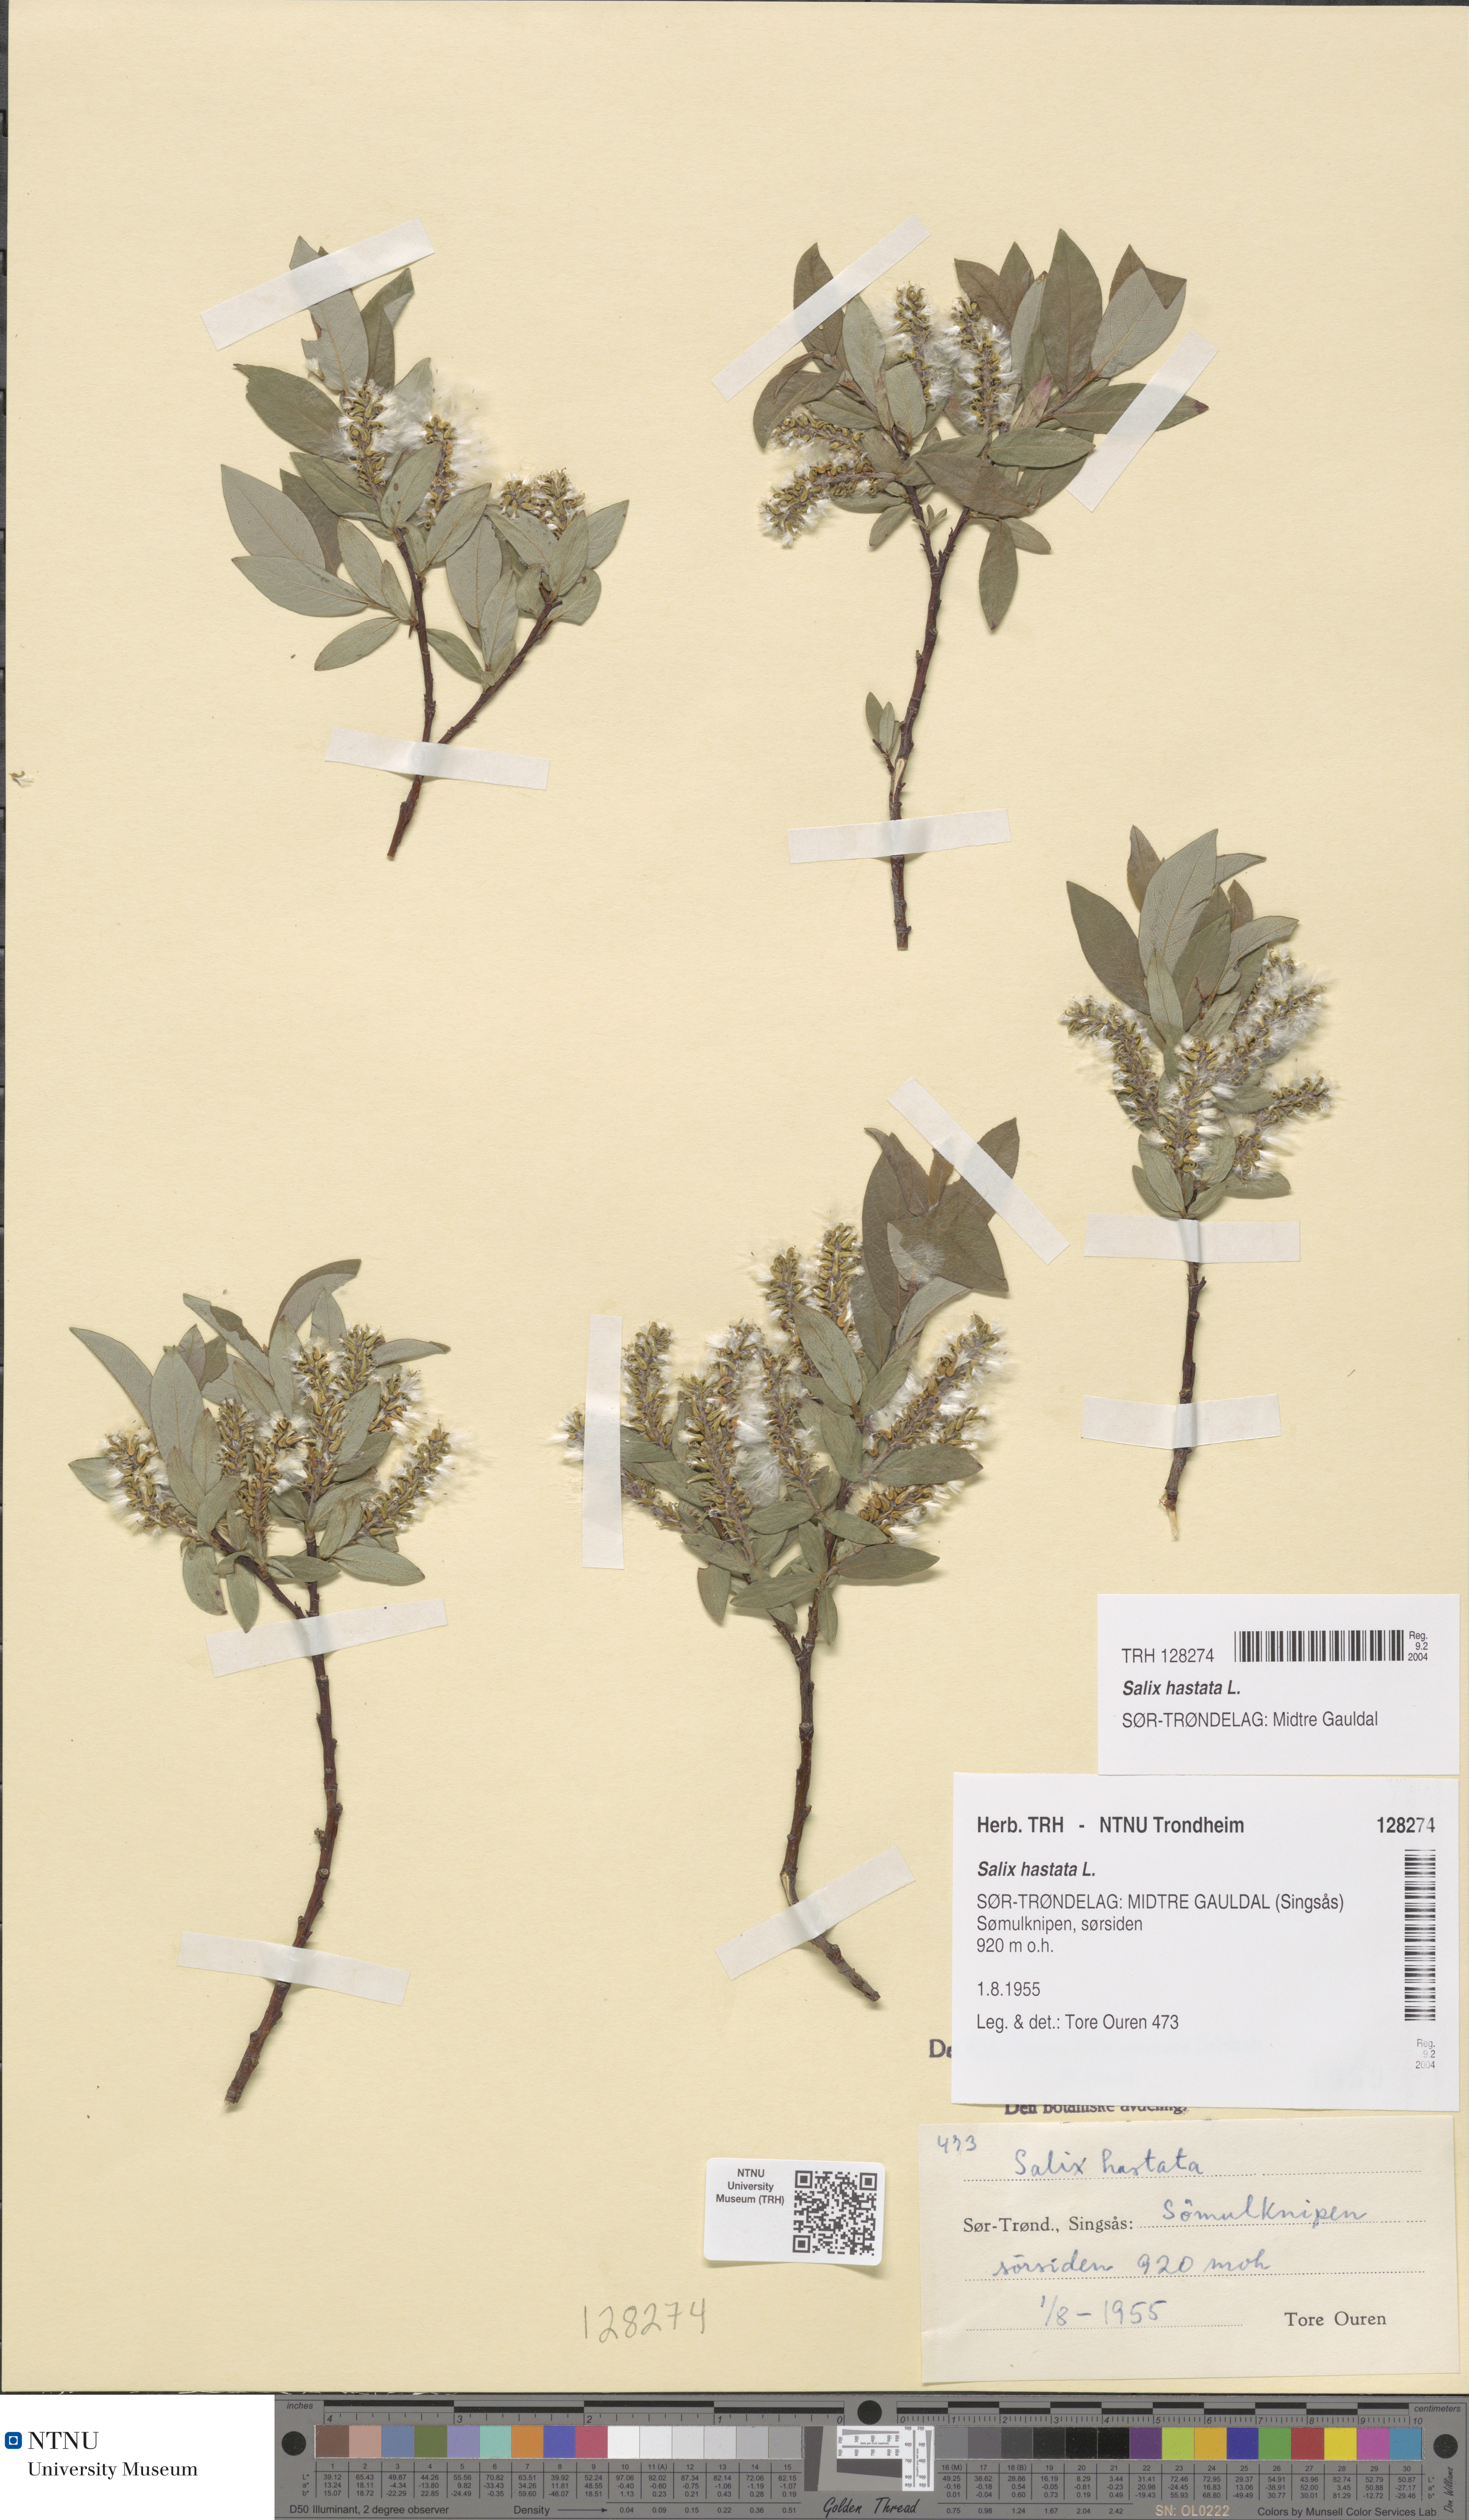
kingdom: Plantae
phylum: Tracheophyta
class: Magnoliopsida
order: Malpighiales
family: Salicaceae
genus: Salix
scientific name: Salix hastata
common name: Halberd willow
